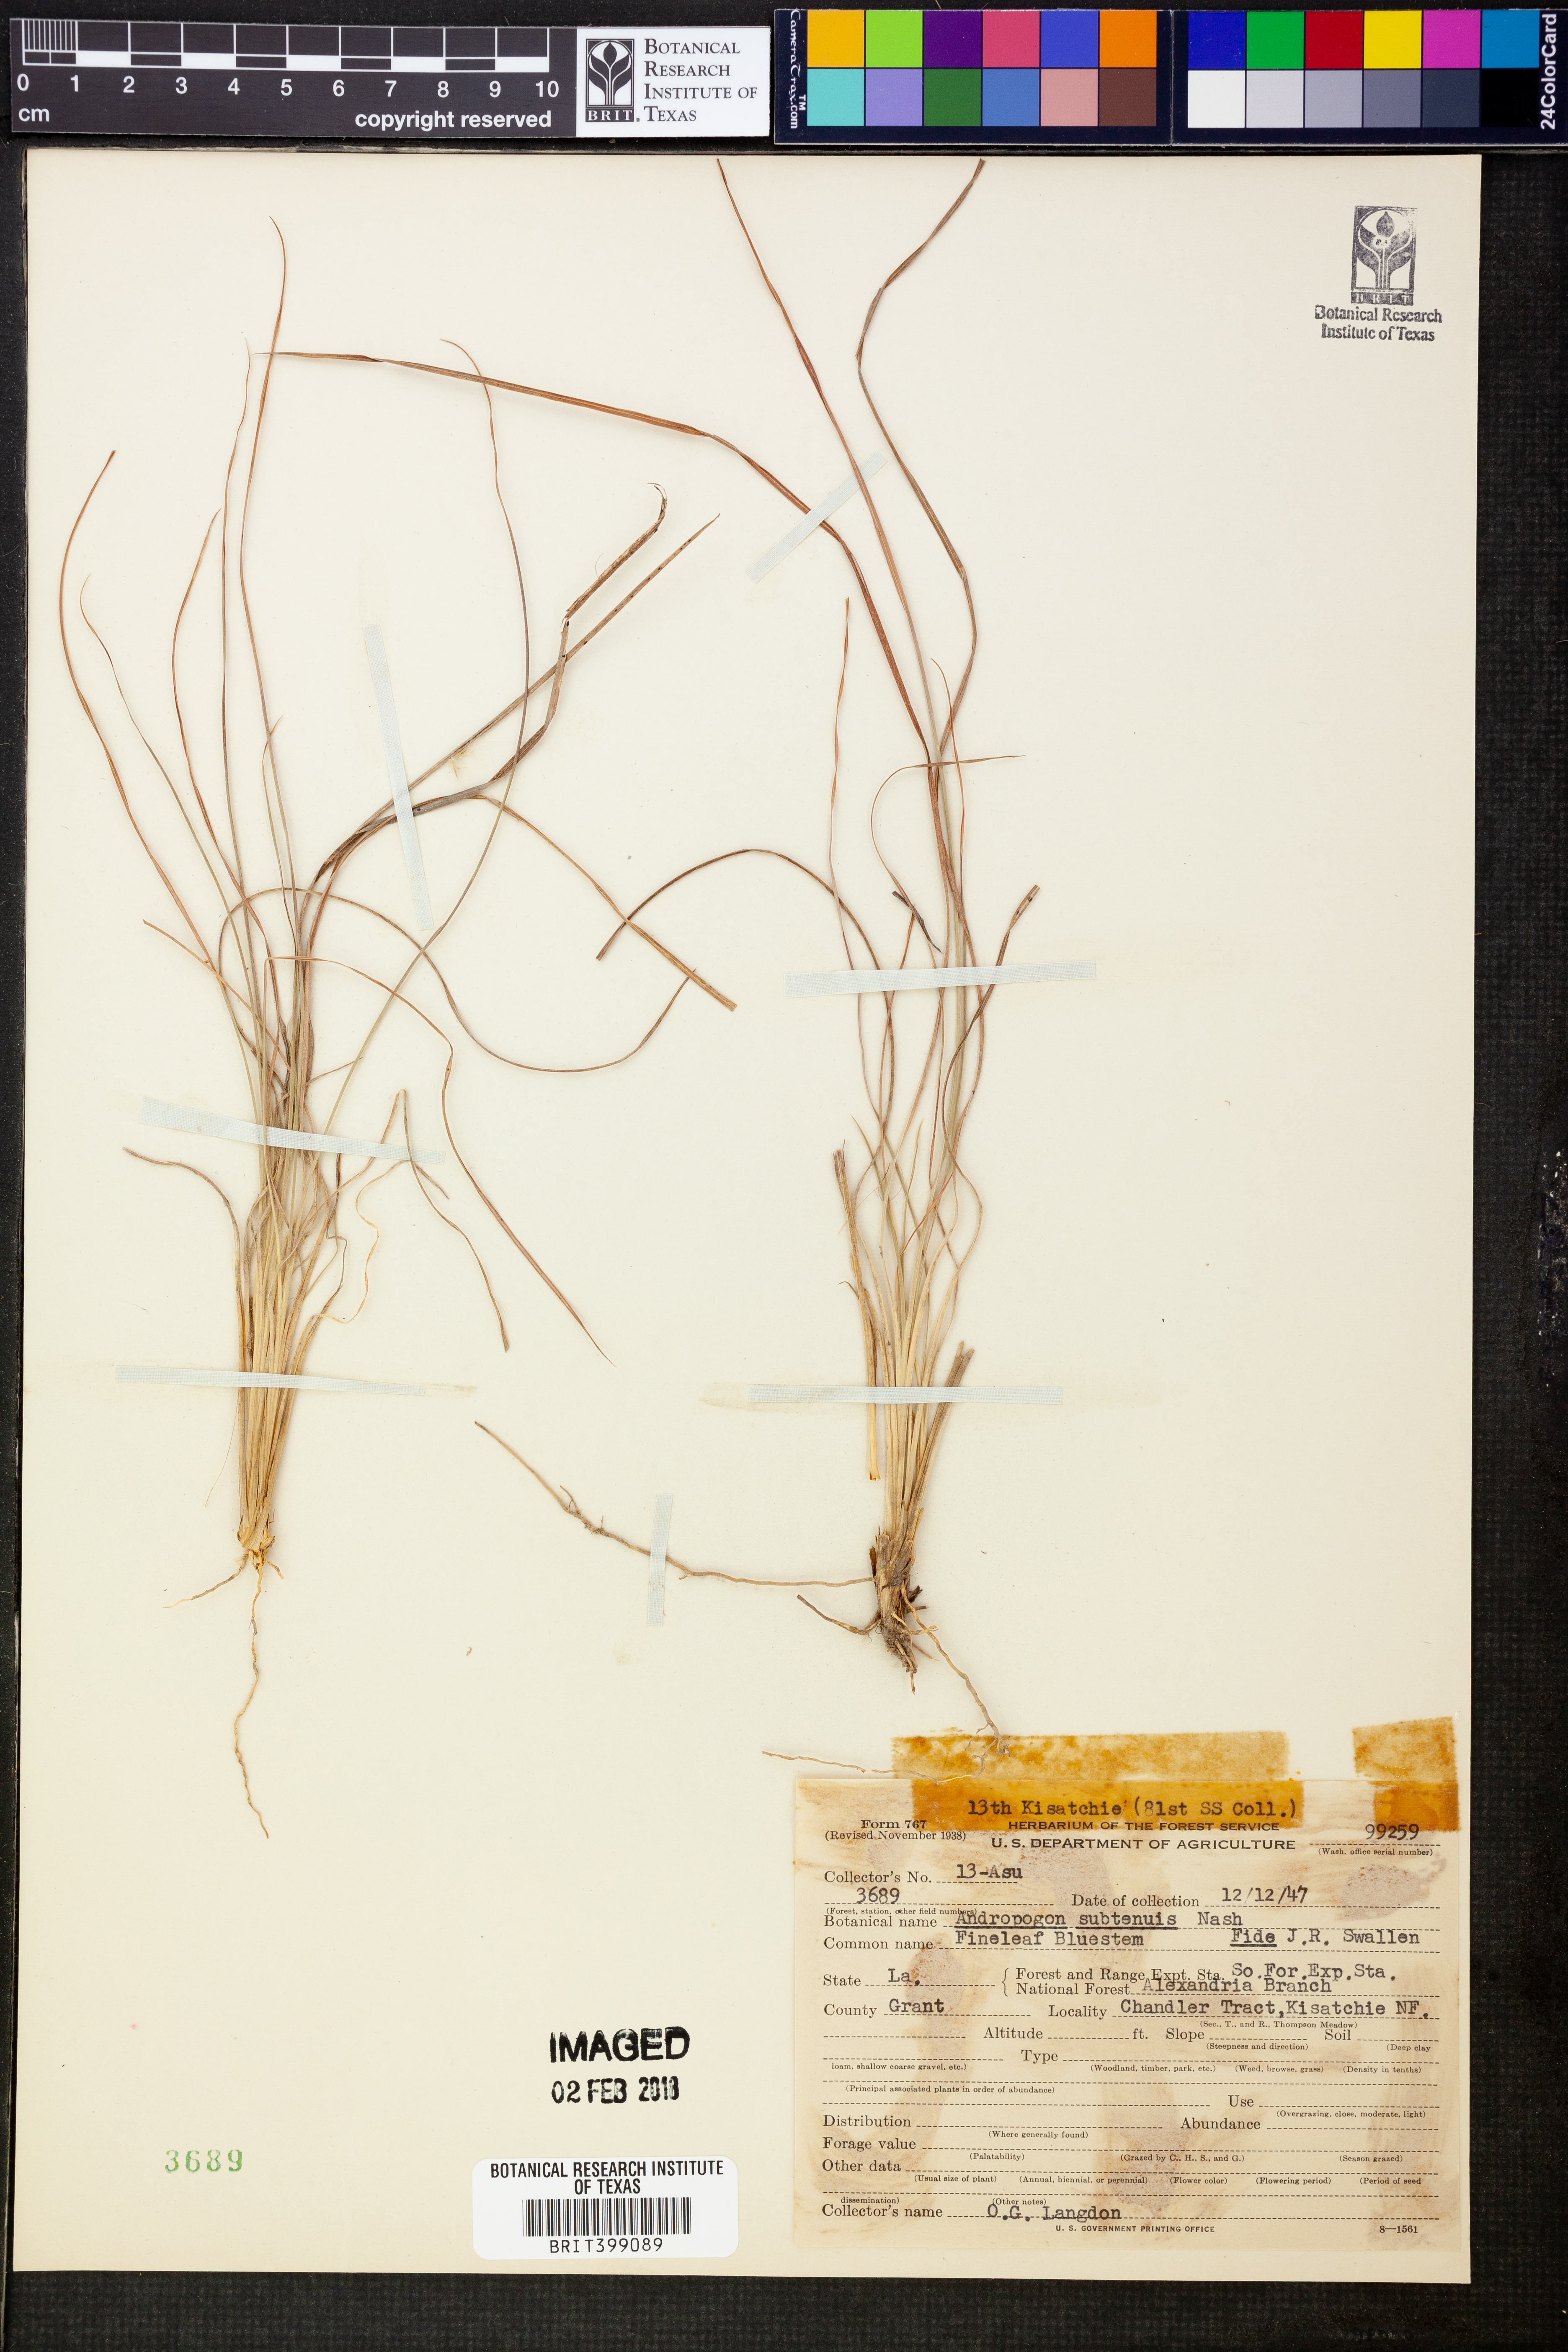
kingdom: Plantae
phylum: Tracheophyta
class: Liliopsida
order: Poales
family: Poaceae
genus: Andropogon
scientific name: Andropogon gyrans
